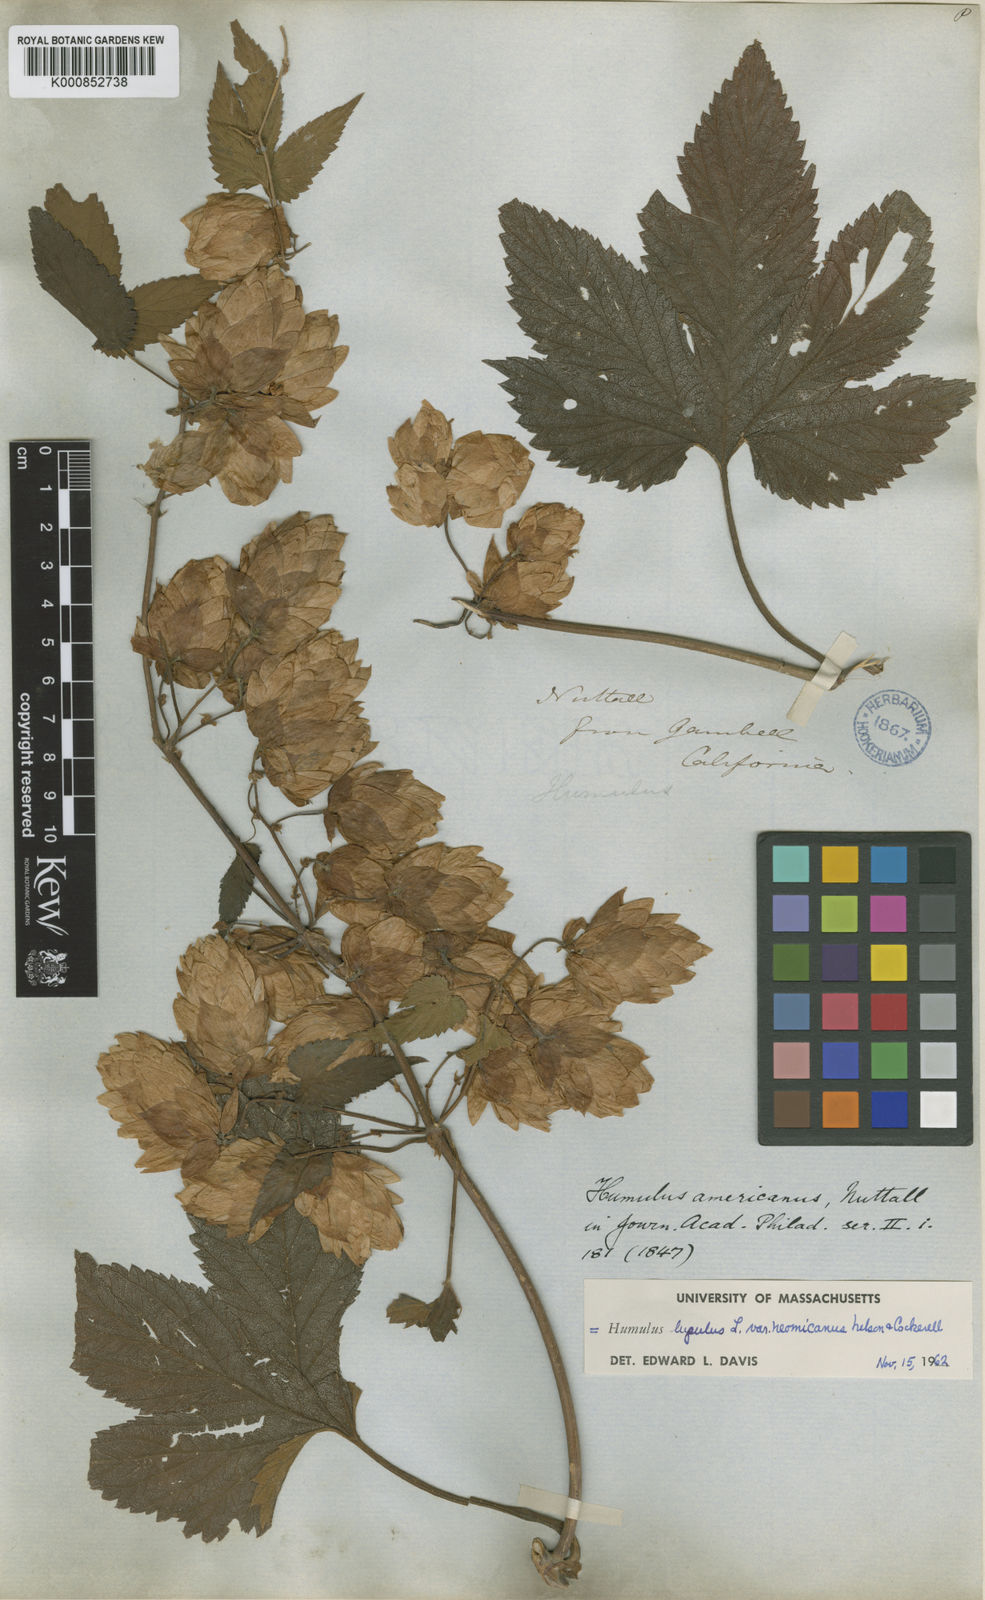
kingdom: Plantae
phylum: Tracheophyta
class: Magnoliopsida
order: Rosales
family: Cannabaceae
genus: Humulus
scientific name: Humulus americanus
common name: American hops
